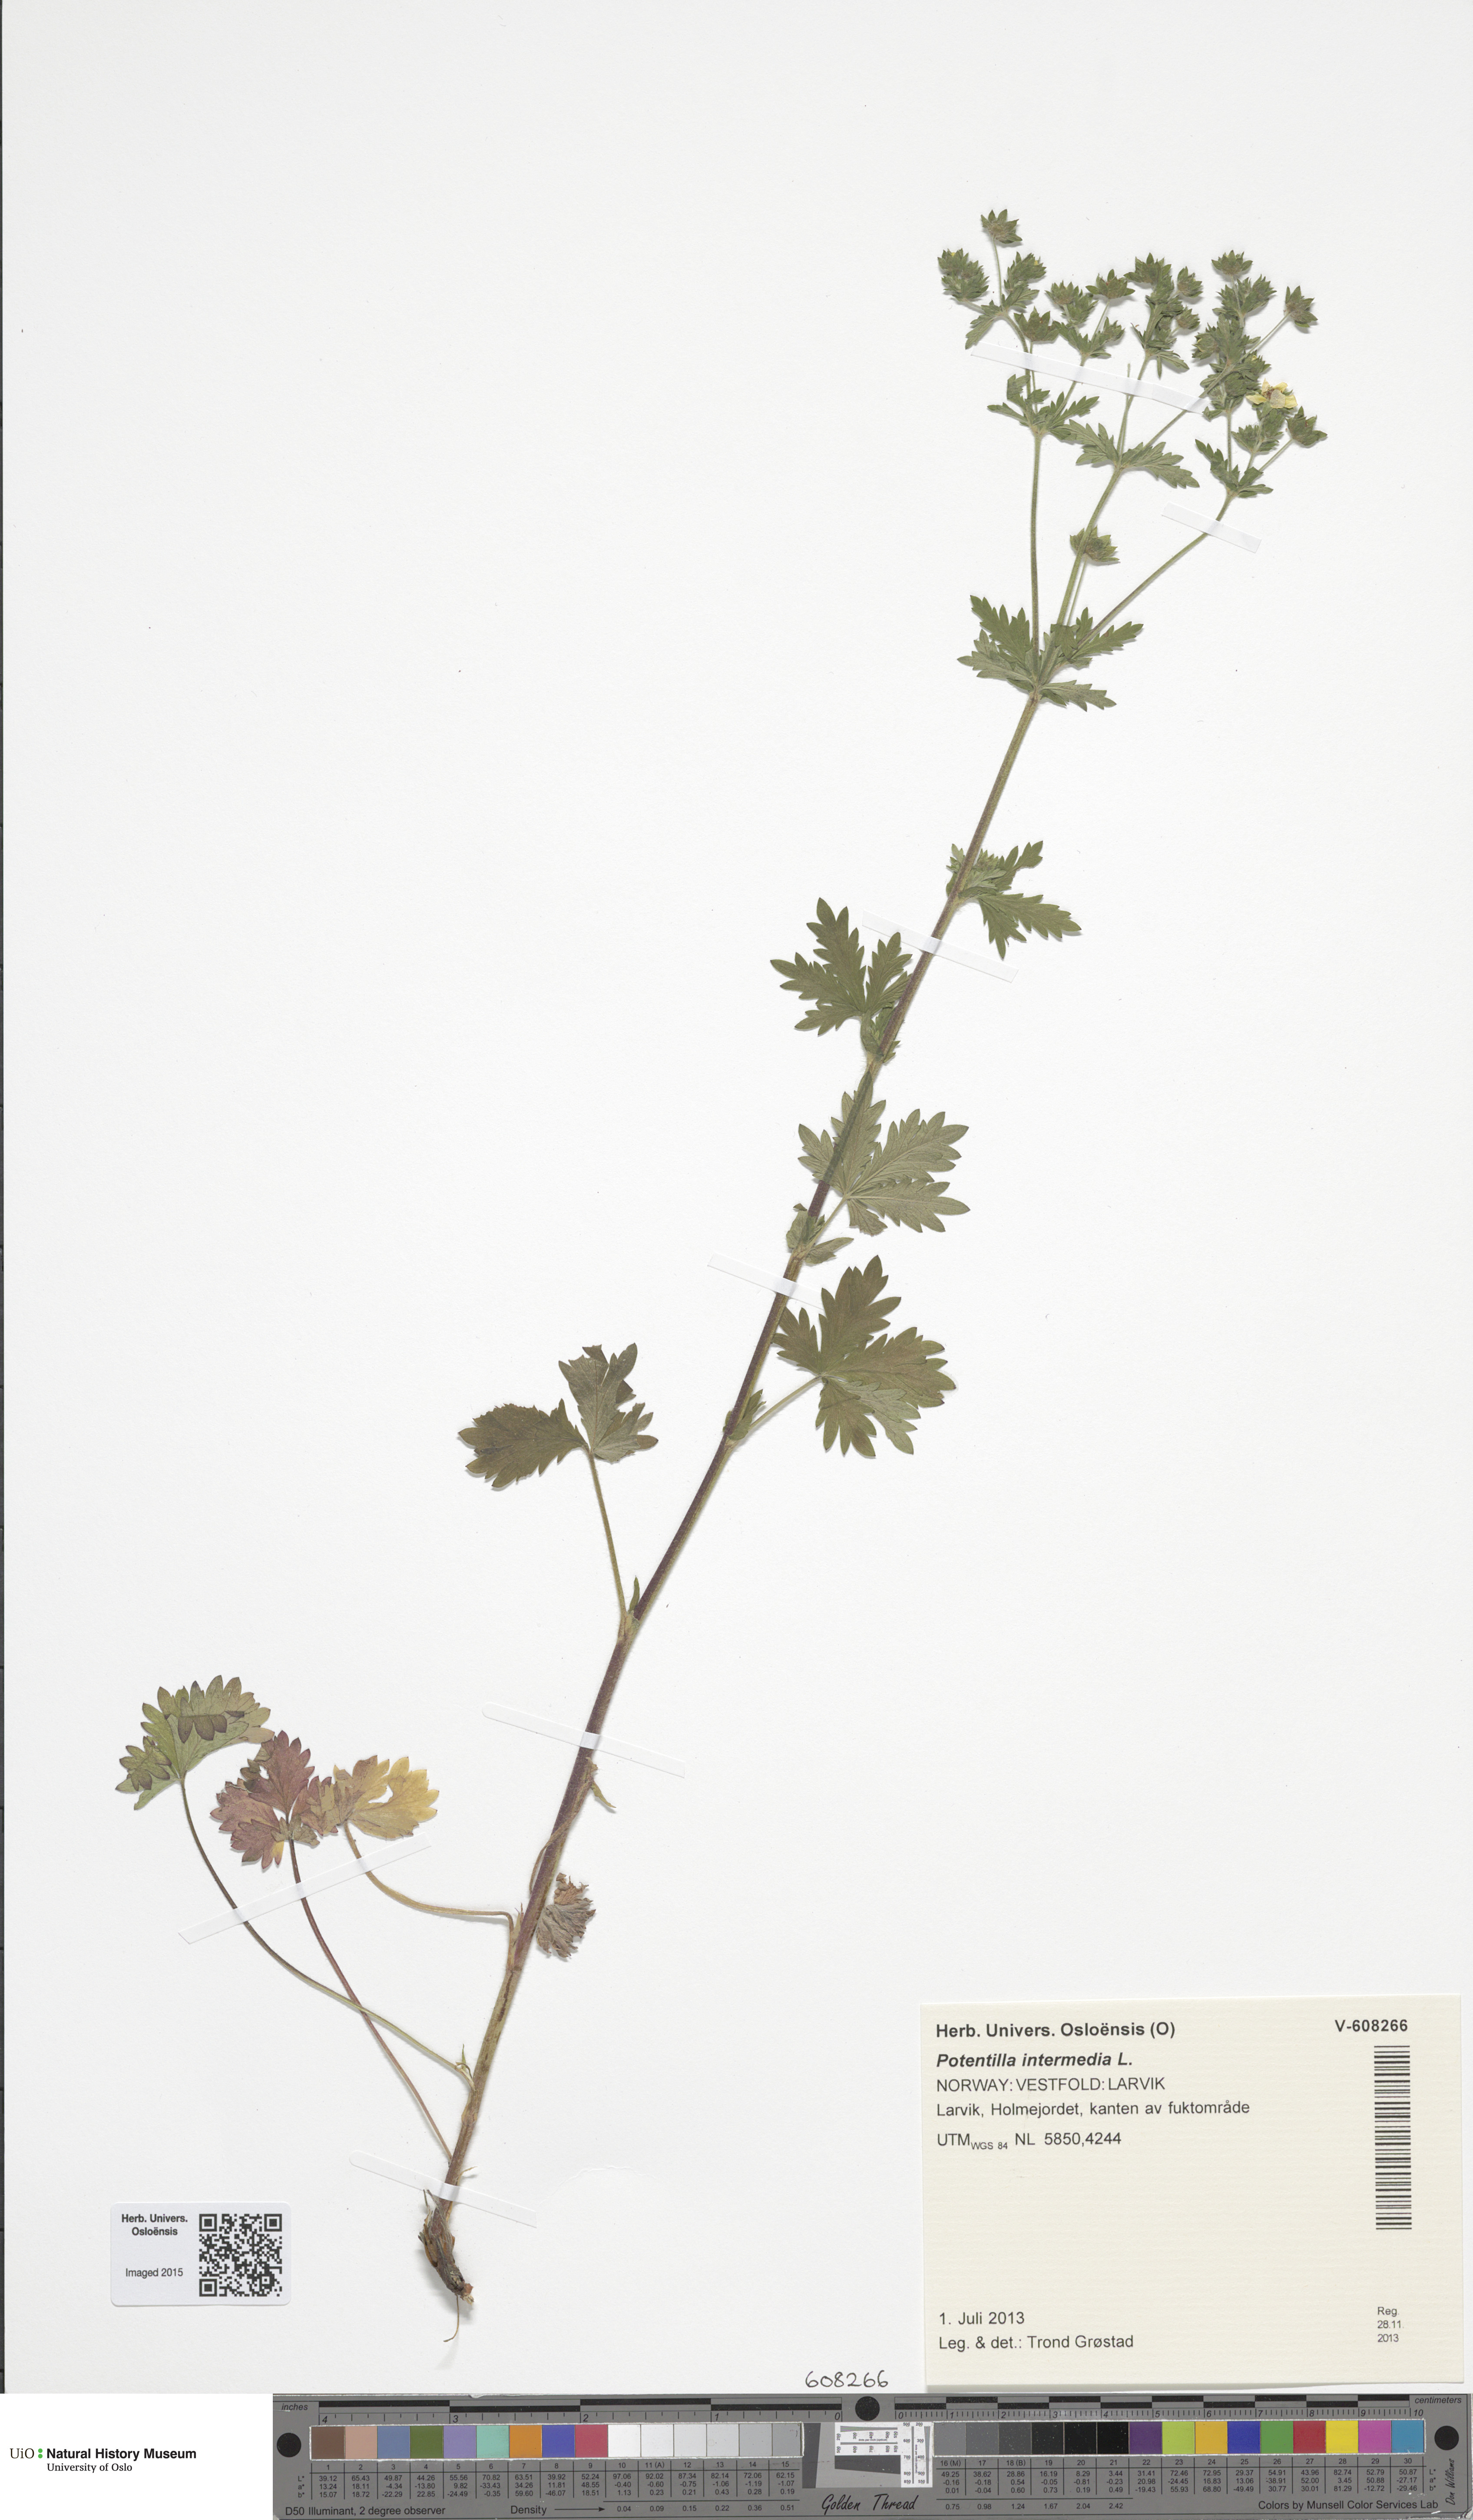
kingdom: Plantae
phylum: Tracheophyta
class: Magnoliopsida
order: Rosales
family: Rosaceae
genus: Potentilla
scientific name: Potentilla intermedia
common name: Downy cinquefoil
